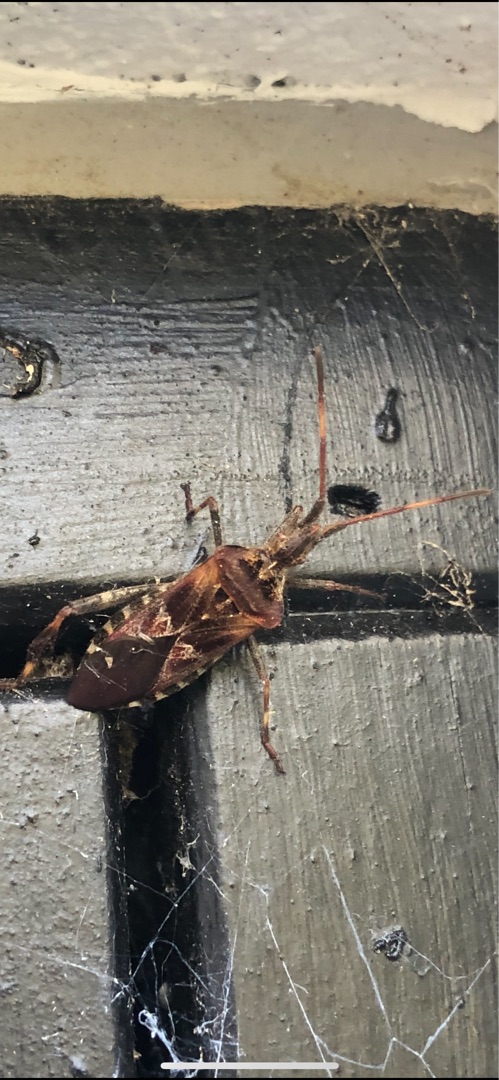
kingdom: Animalia
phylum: Arthropoda
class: Insecta
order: Hemiptera
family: Coreidae
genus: Leptoglossus
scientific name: Leptoglossus occidentalis
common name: Amerikansk fyrretæge
